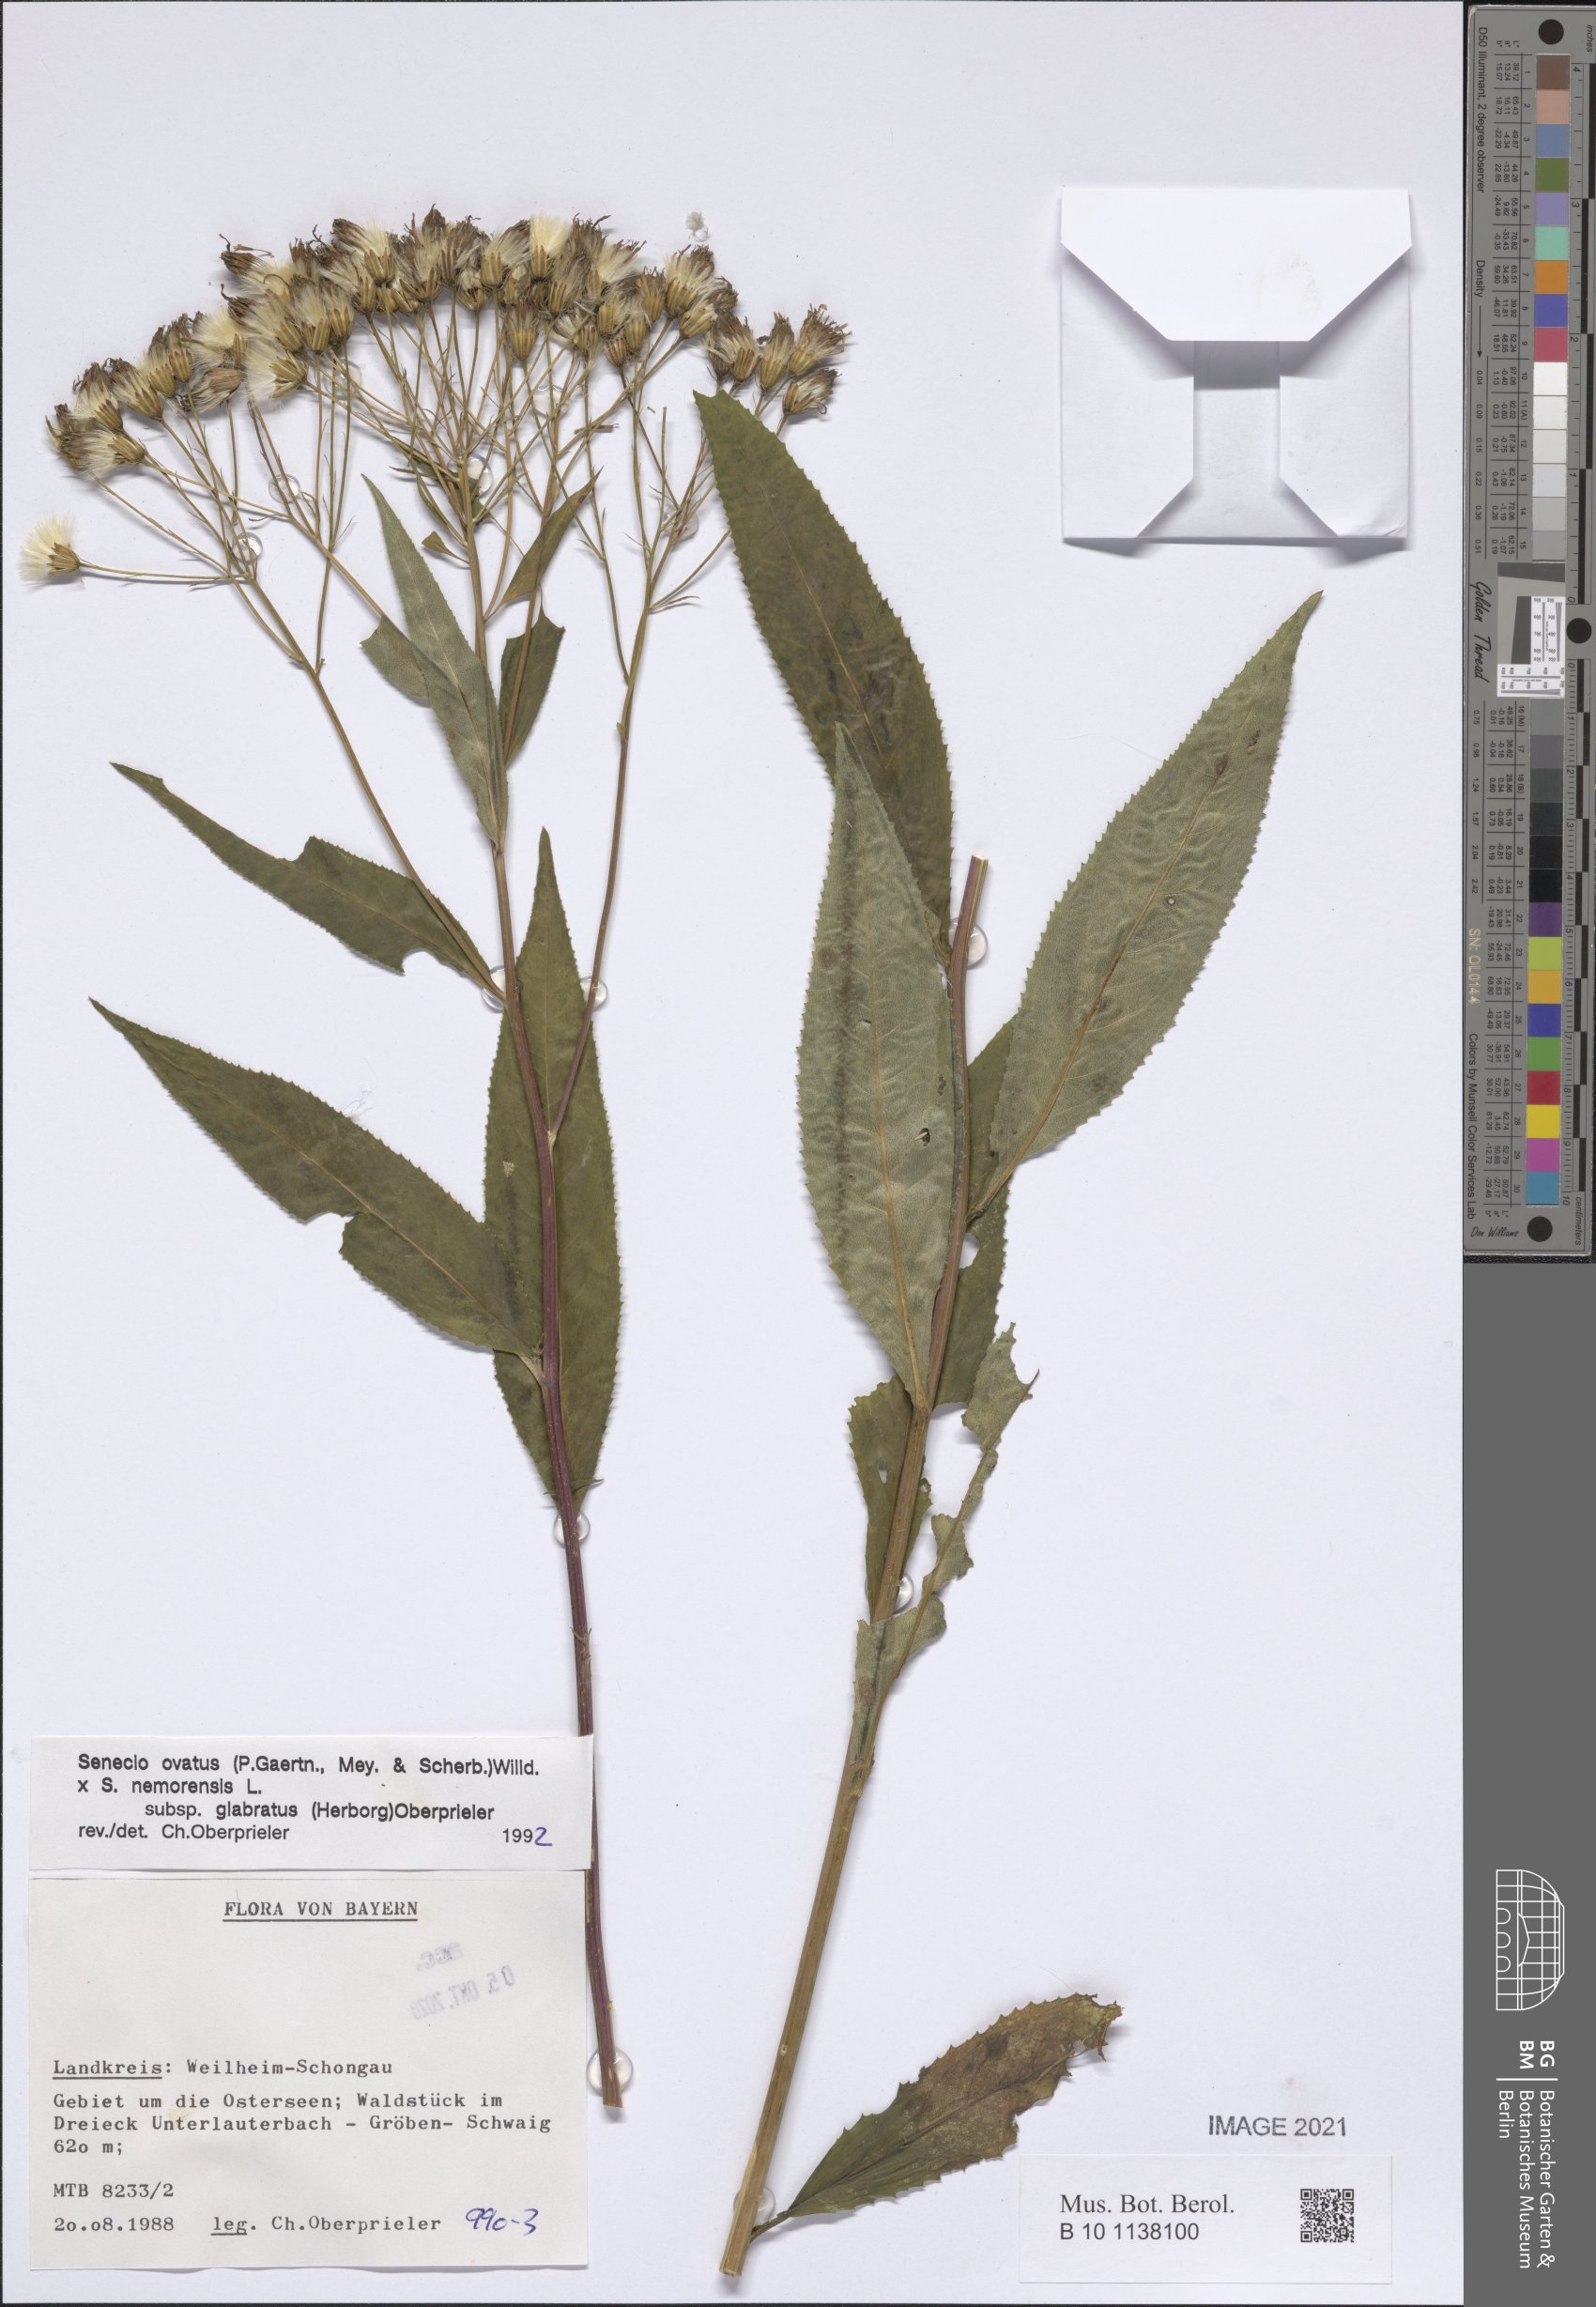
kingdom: Plantae
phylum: Tracheophyta
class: Magnoliopsida
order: Asterales
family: Asteraceae
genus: Senecio
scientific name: Senecio ovatus
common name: Wood ragwort
